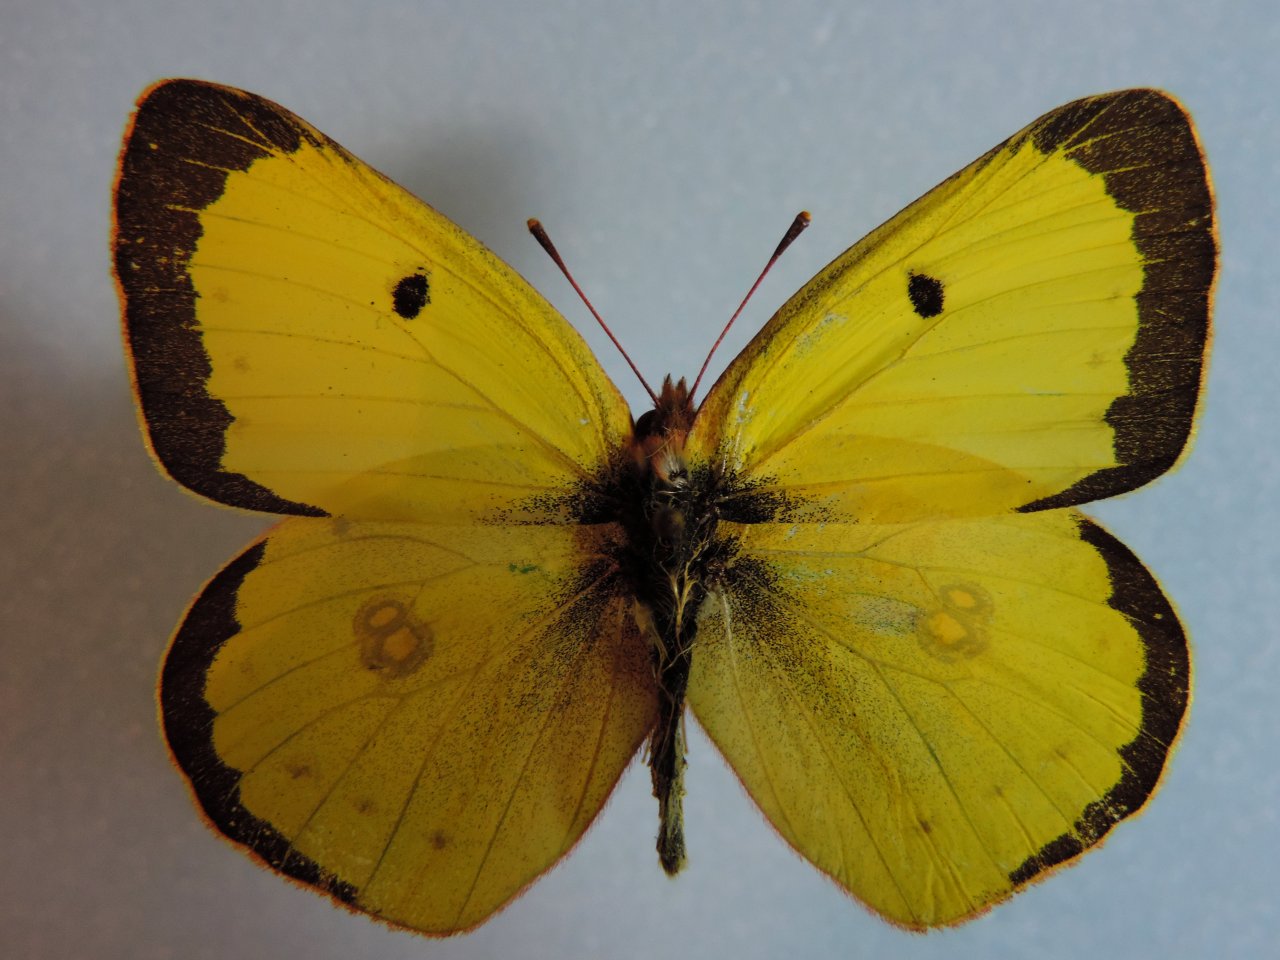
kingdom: Animalia
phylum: Arthropoda
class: Insecta
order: Lepidoptera
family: Pieridae
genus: Colias
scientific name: Colias philodice
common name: Clouded Sulphur
